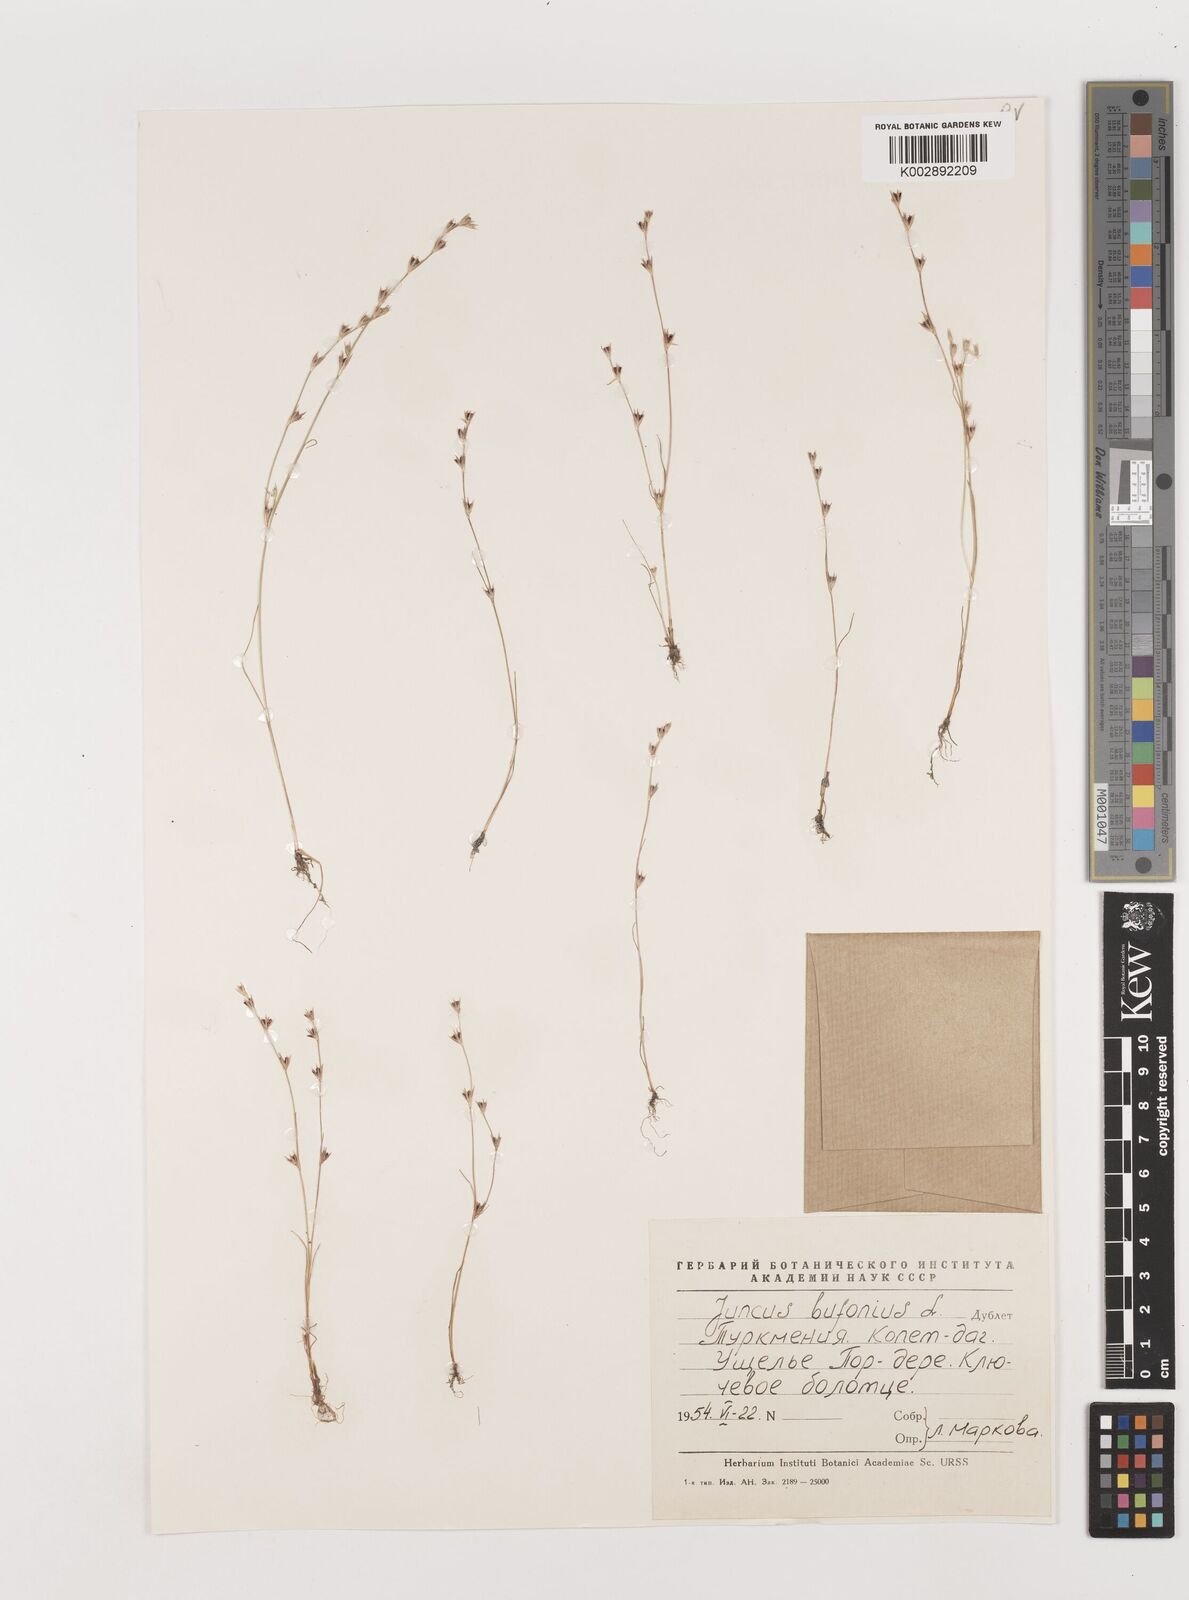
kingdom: Plantae
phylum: Tracheophyta
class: Liliopsida
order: Poales
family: Juncaceae
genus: Juncus
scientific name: Juncus bufonius
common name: Toad rush
